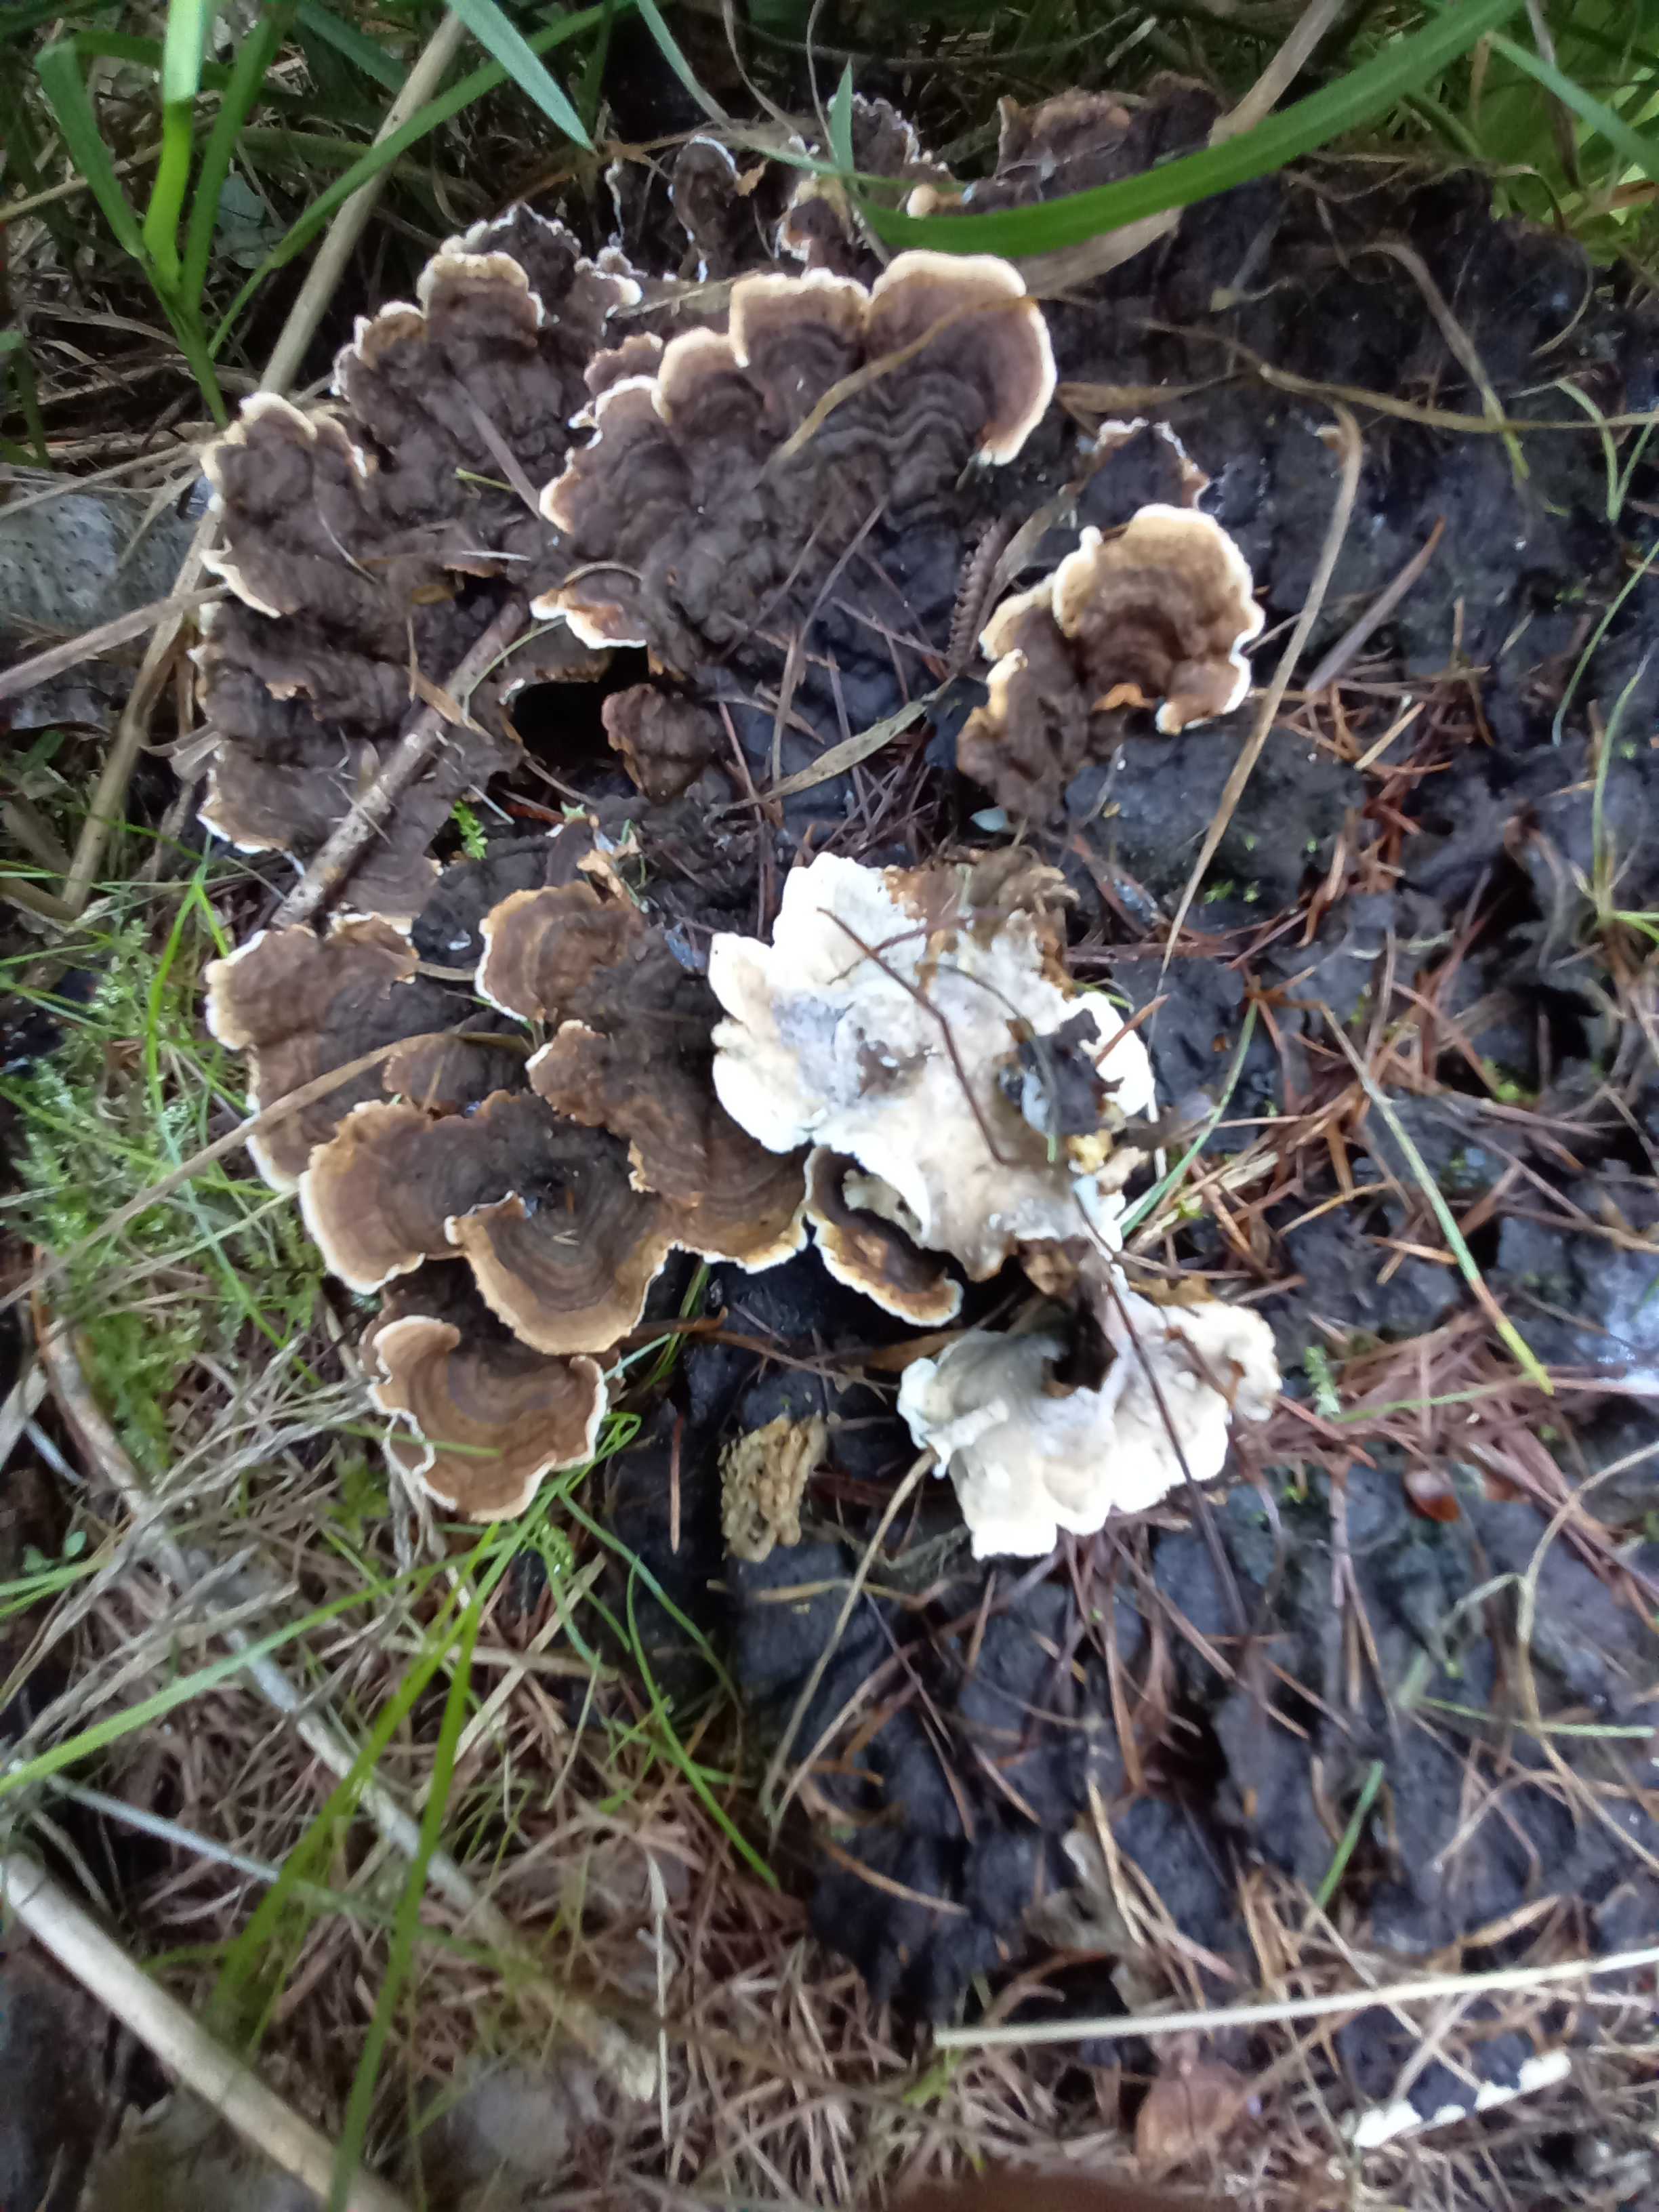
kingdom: Fungi
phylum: Basidiomycota
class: Agaricomycetes
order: Russulales
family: Hericiaceae
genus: Laxitextum
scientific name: Laxitextum bicolor
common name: tvefarvet filtskind
